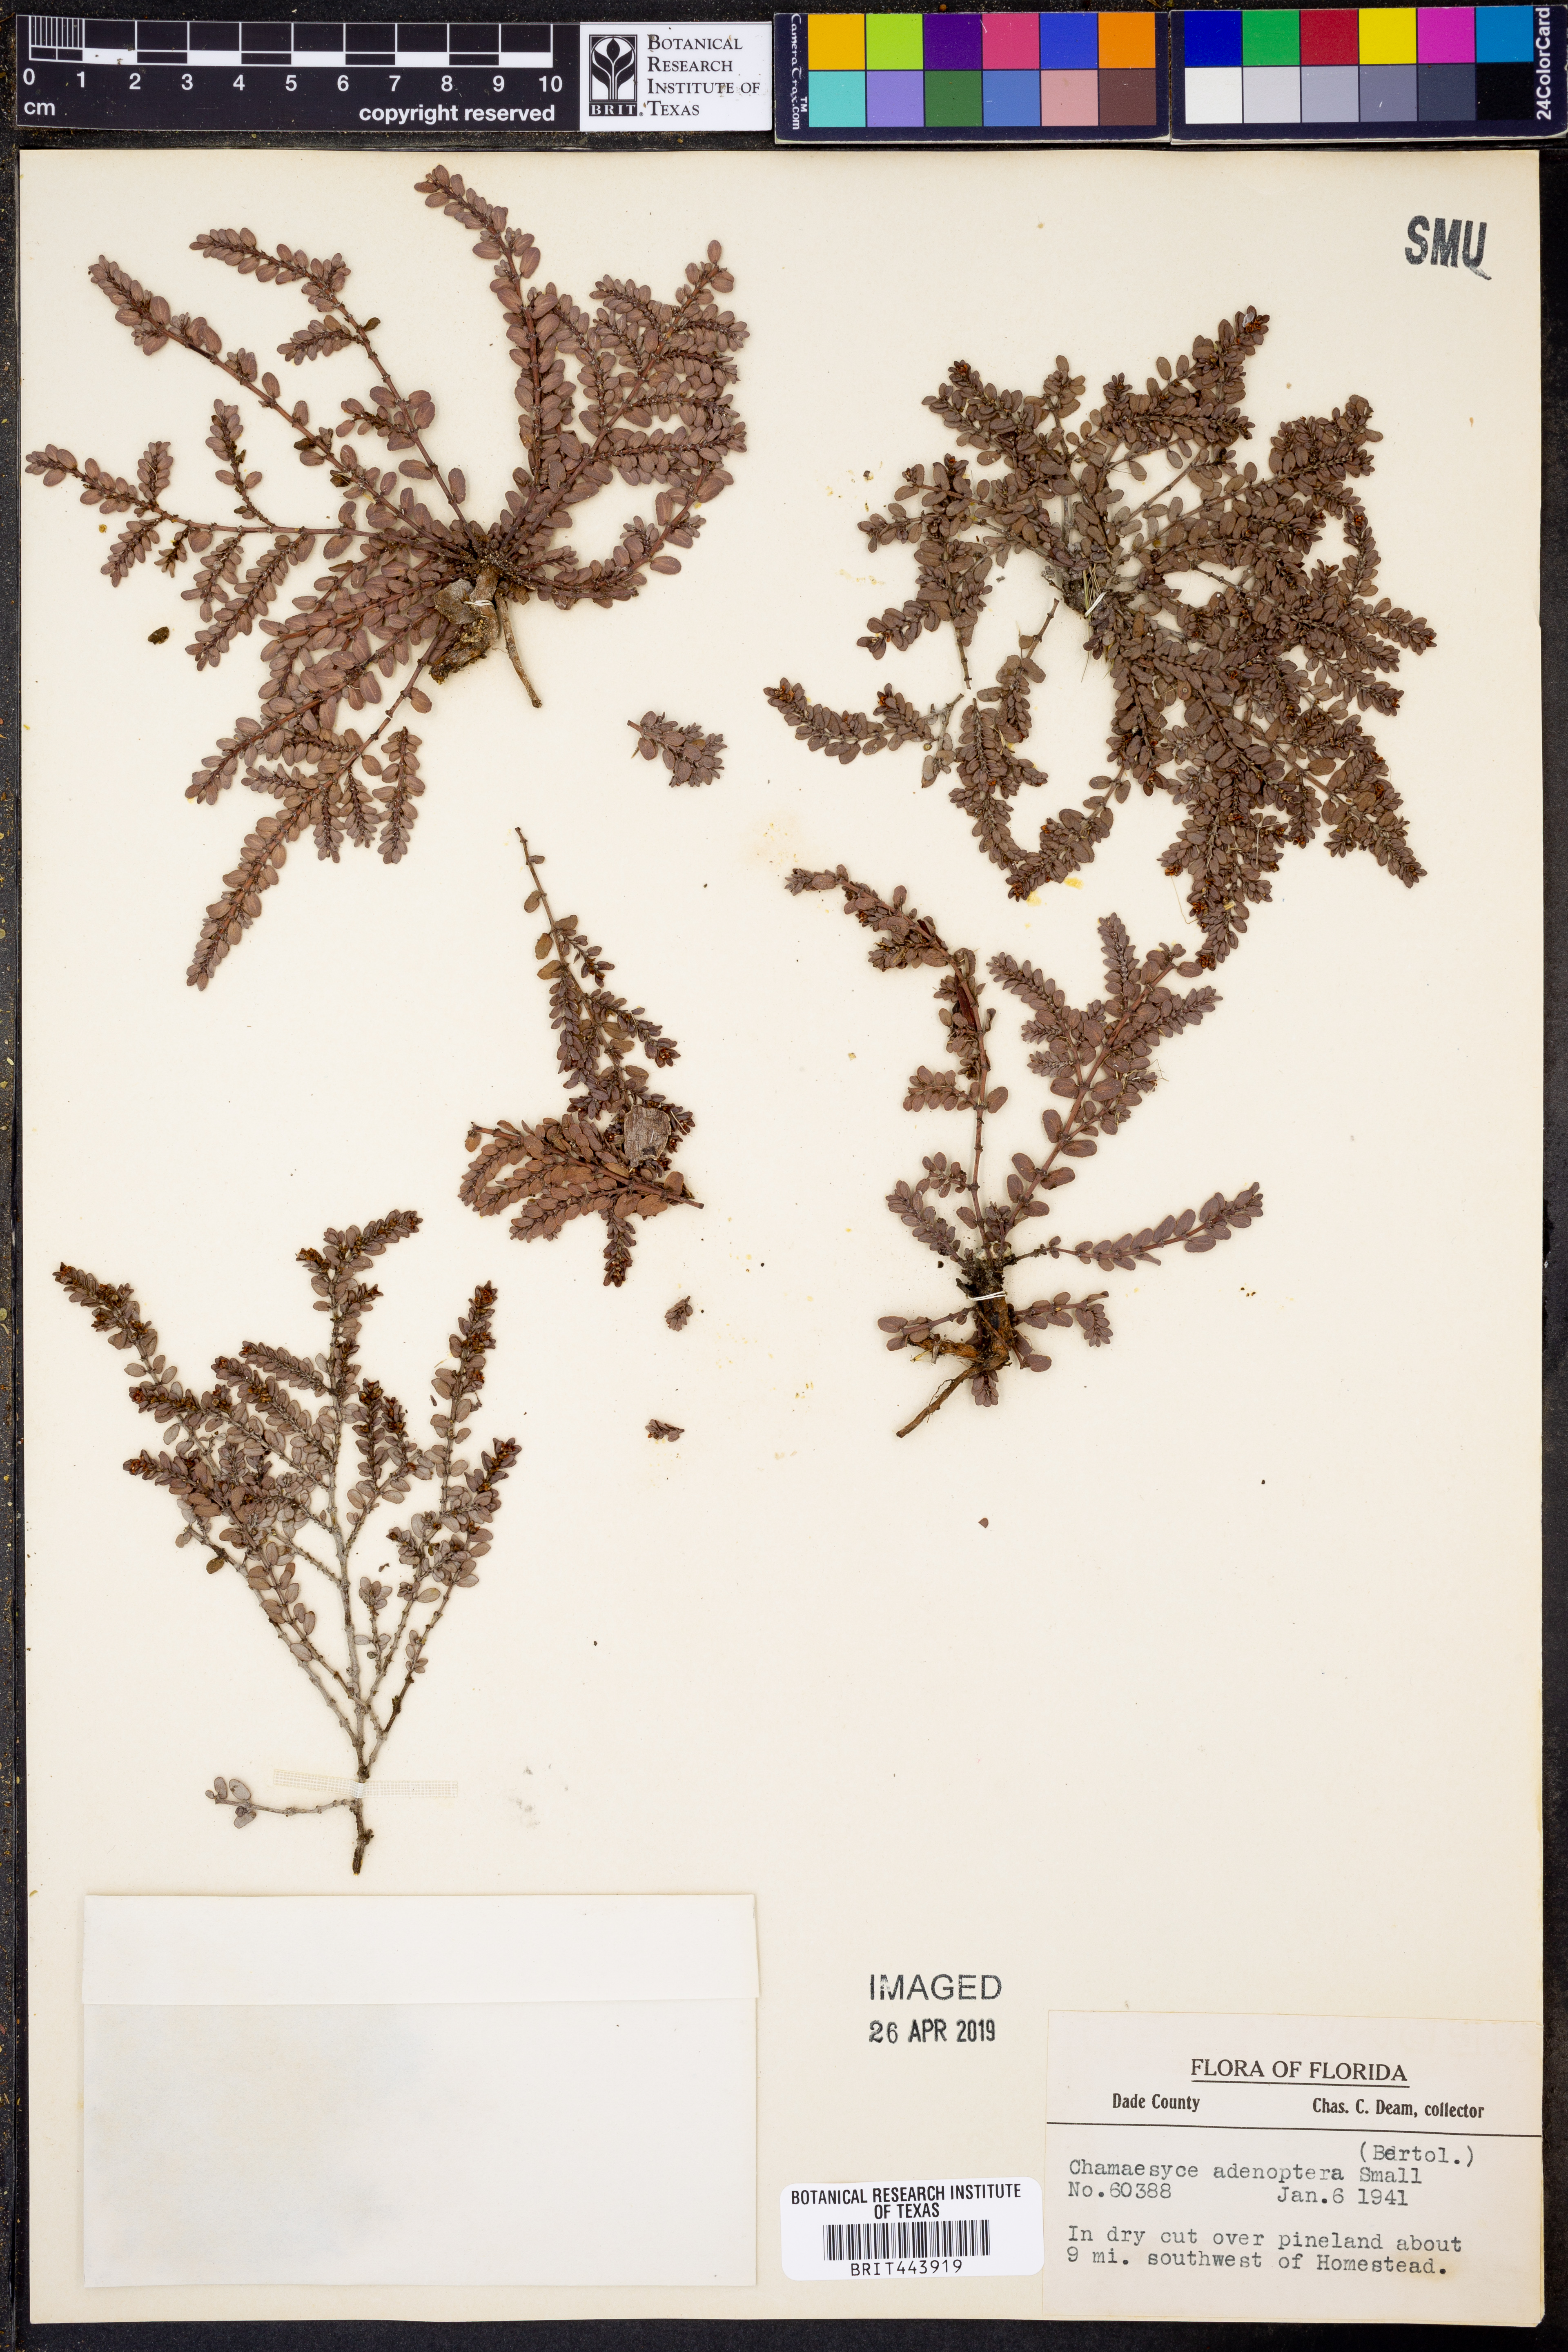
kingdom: Plantae
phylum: Tracheophyta
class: Magnoliopsida
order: Malpighiales
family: Euphorbiaceae
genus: Euphorbia
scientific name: Euphorbia adenoptera
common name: Southern florida sandmat
